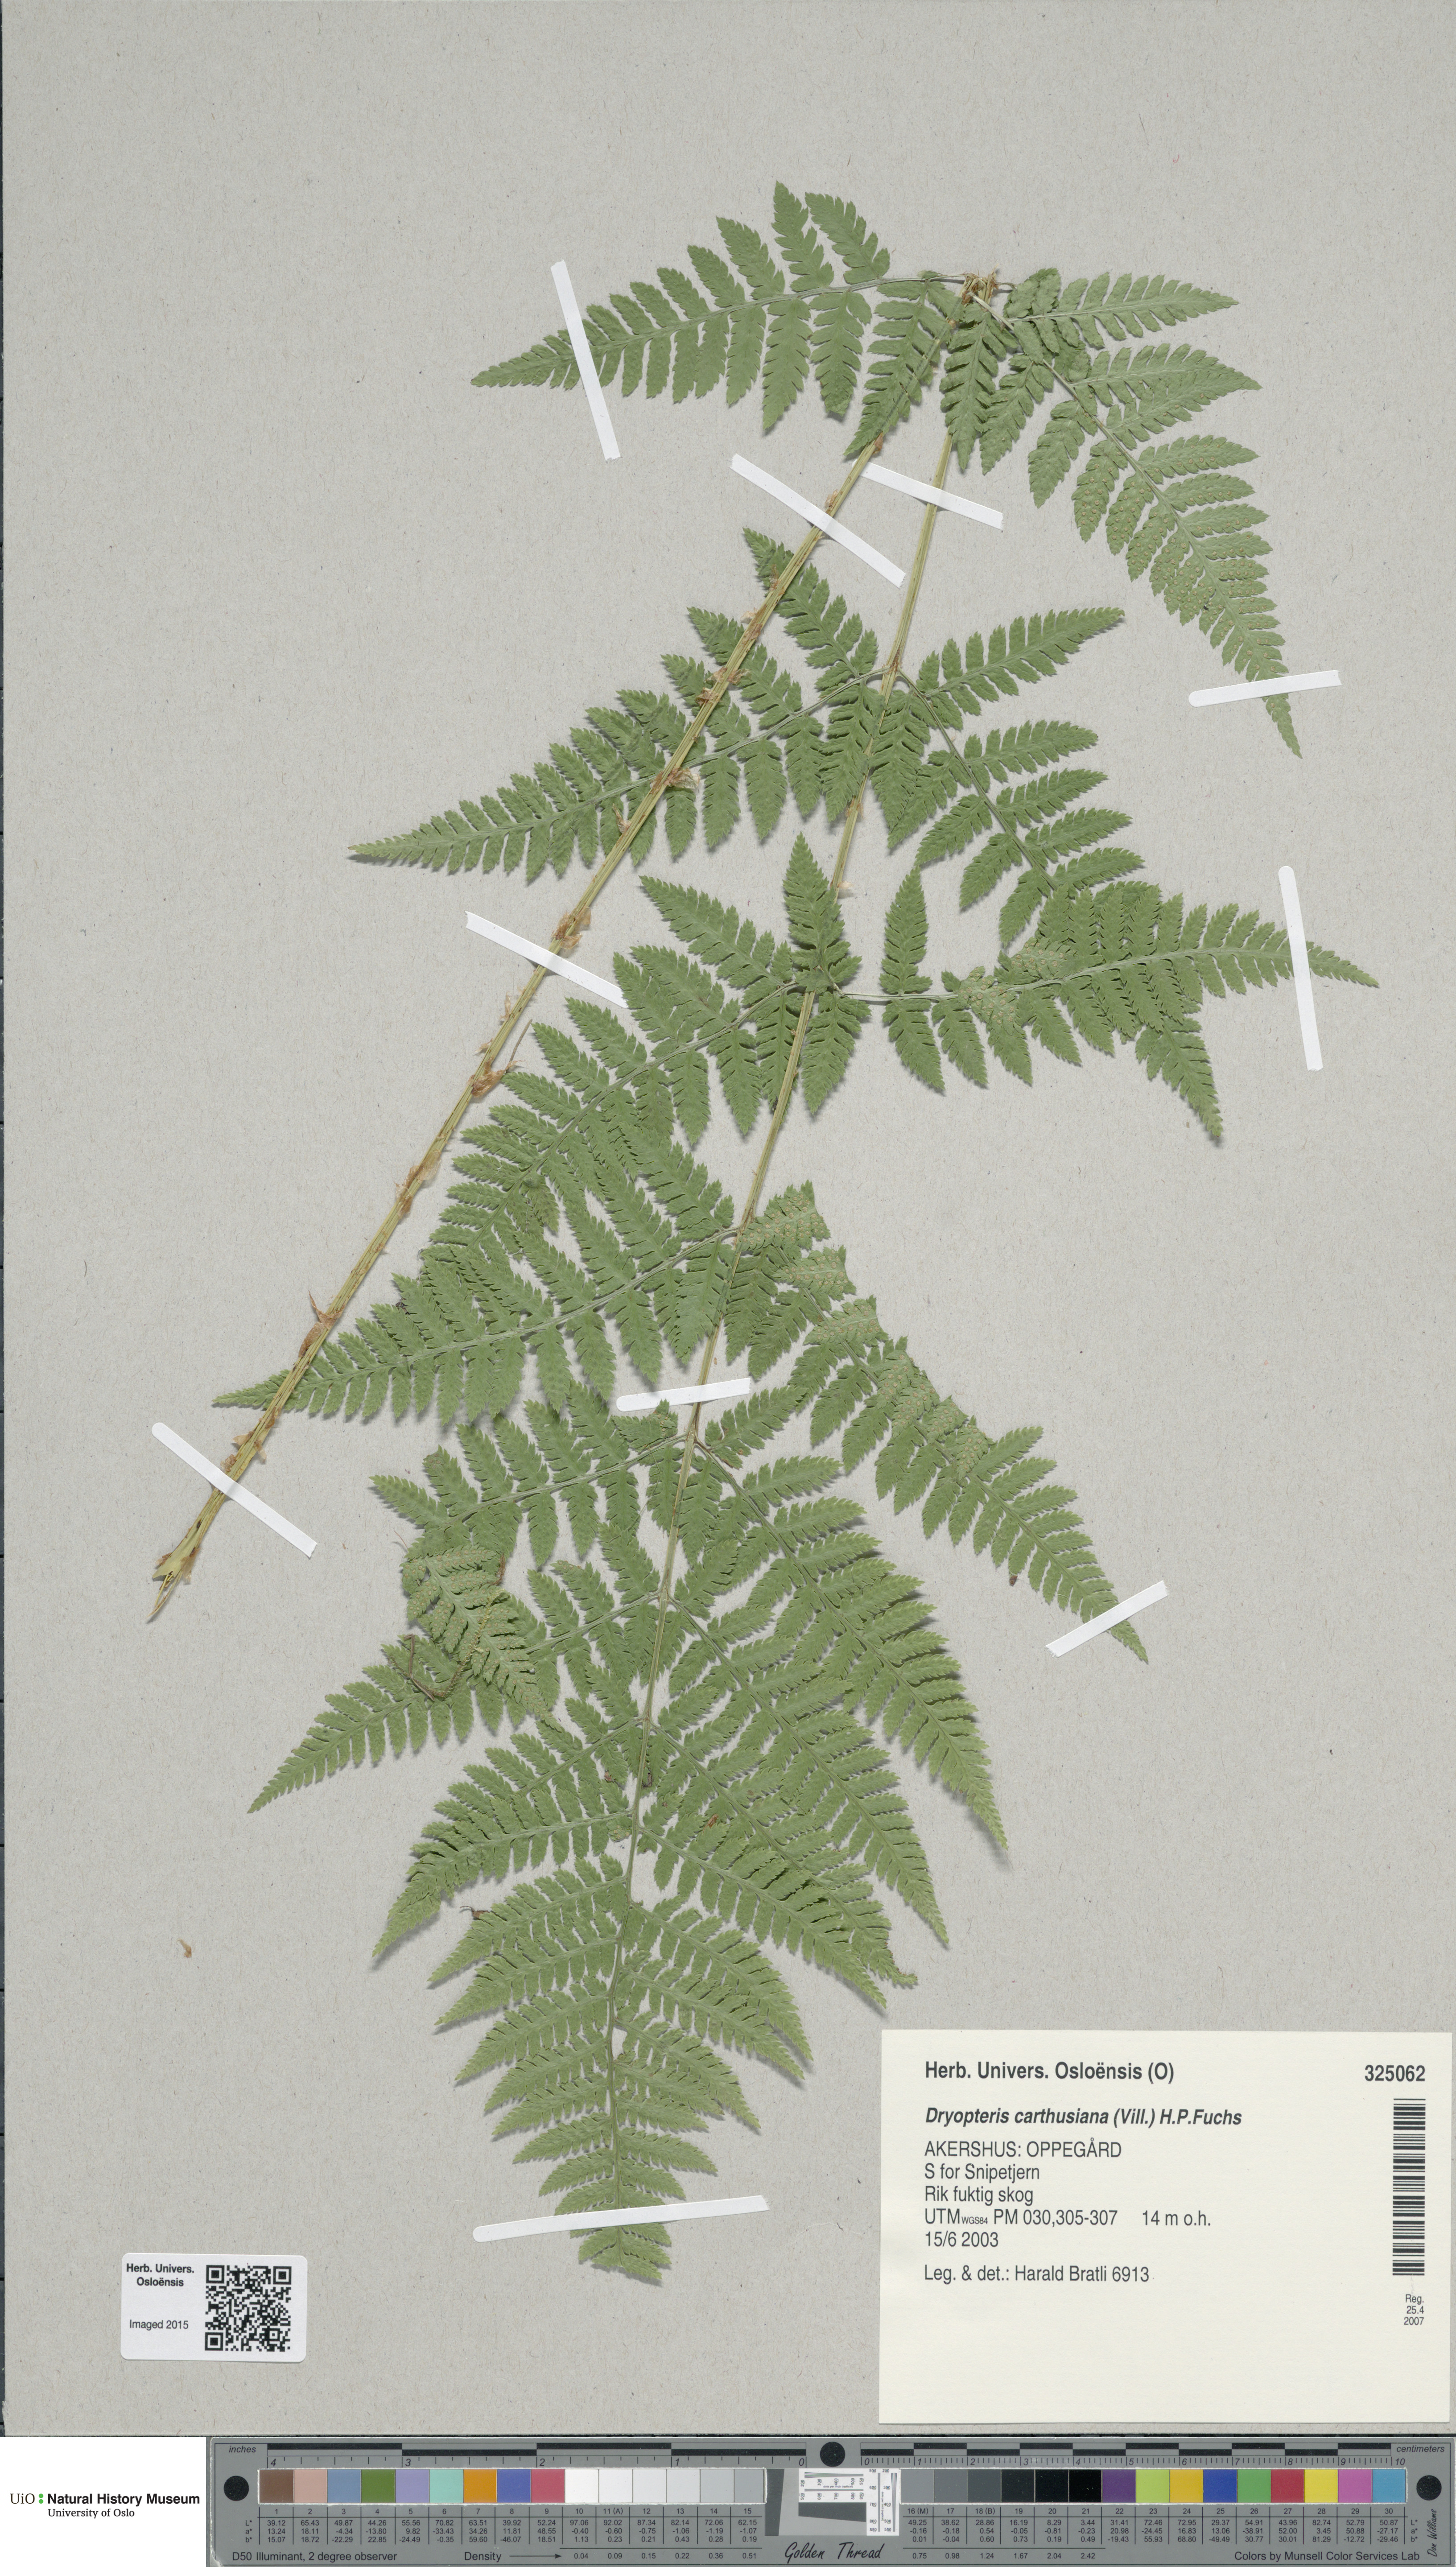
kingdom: Plantae
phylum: Tracheophyta
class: Polypodiopsida
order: Polypodiales
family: Dryopteridaceae
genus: Dryopteris
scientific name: Dryopteris carthusiana
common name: Narrow buckler-fern
